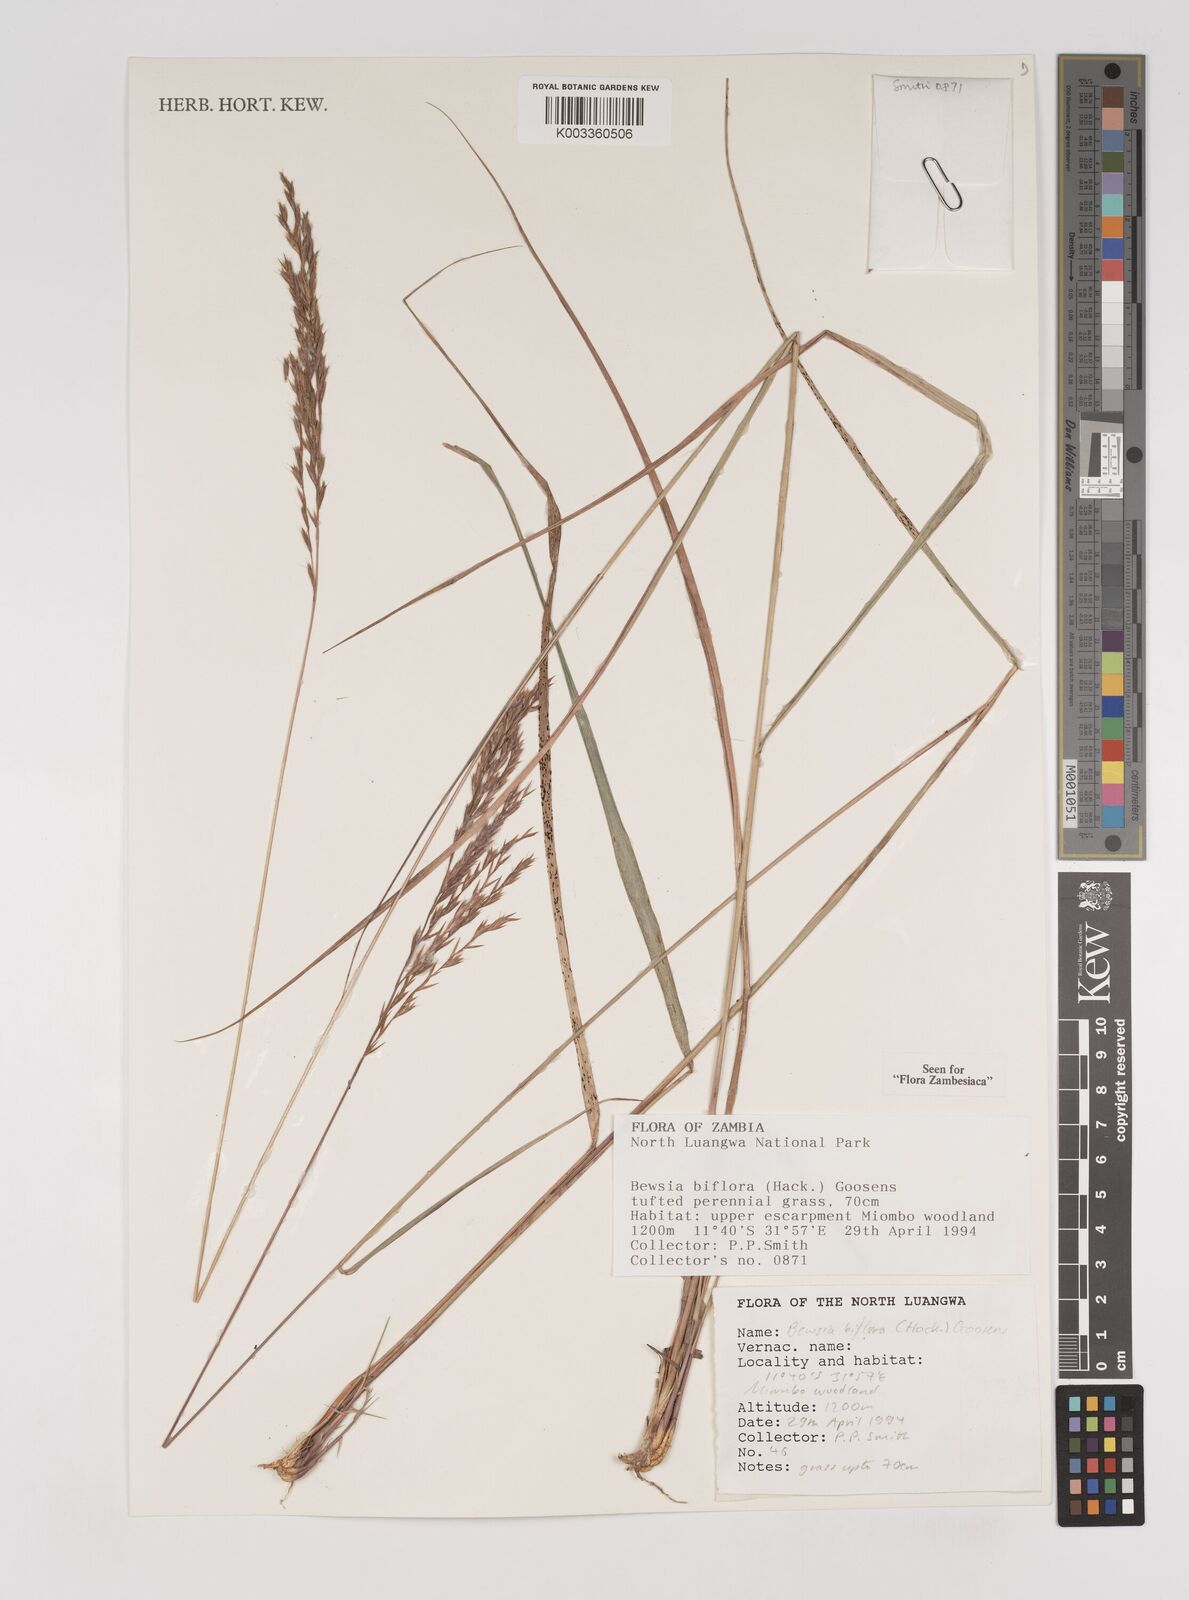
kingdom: Plantae
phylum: Tracheophyta
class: Liliopsida
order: Poales
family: Poaceae
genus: Bewsia
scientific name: Bewsia biflora
